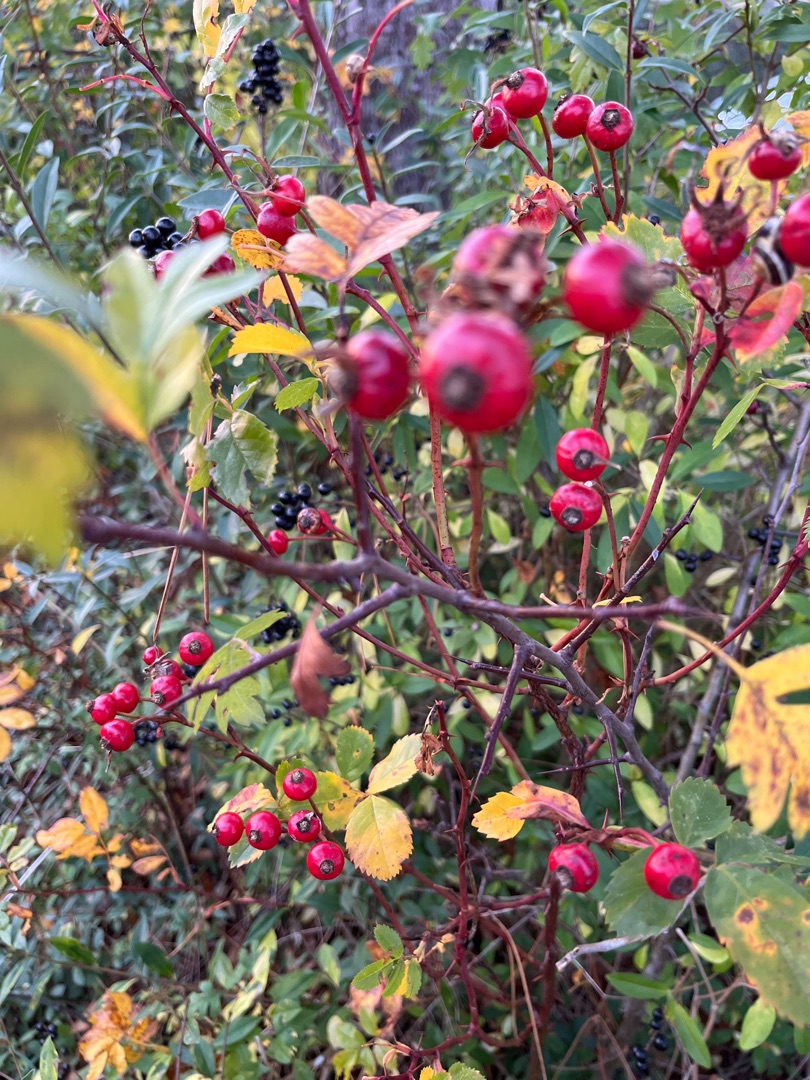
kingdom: Plantae
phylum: Tracheophyta
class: Magnoliopsida
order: Rosales
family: Rosaceae
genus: Rosa
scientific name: Rosa carolina
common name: Glansbladet rose
